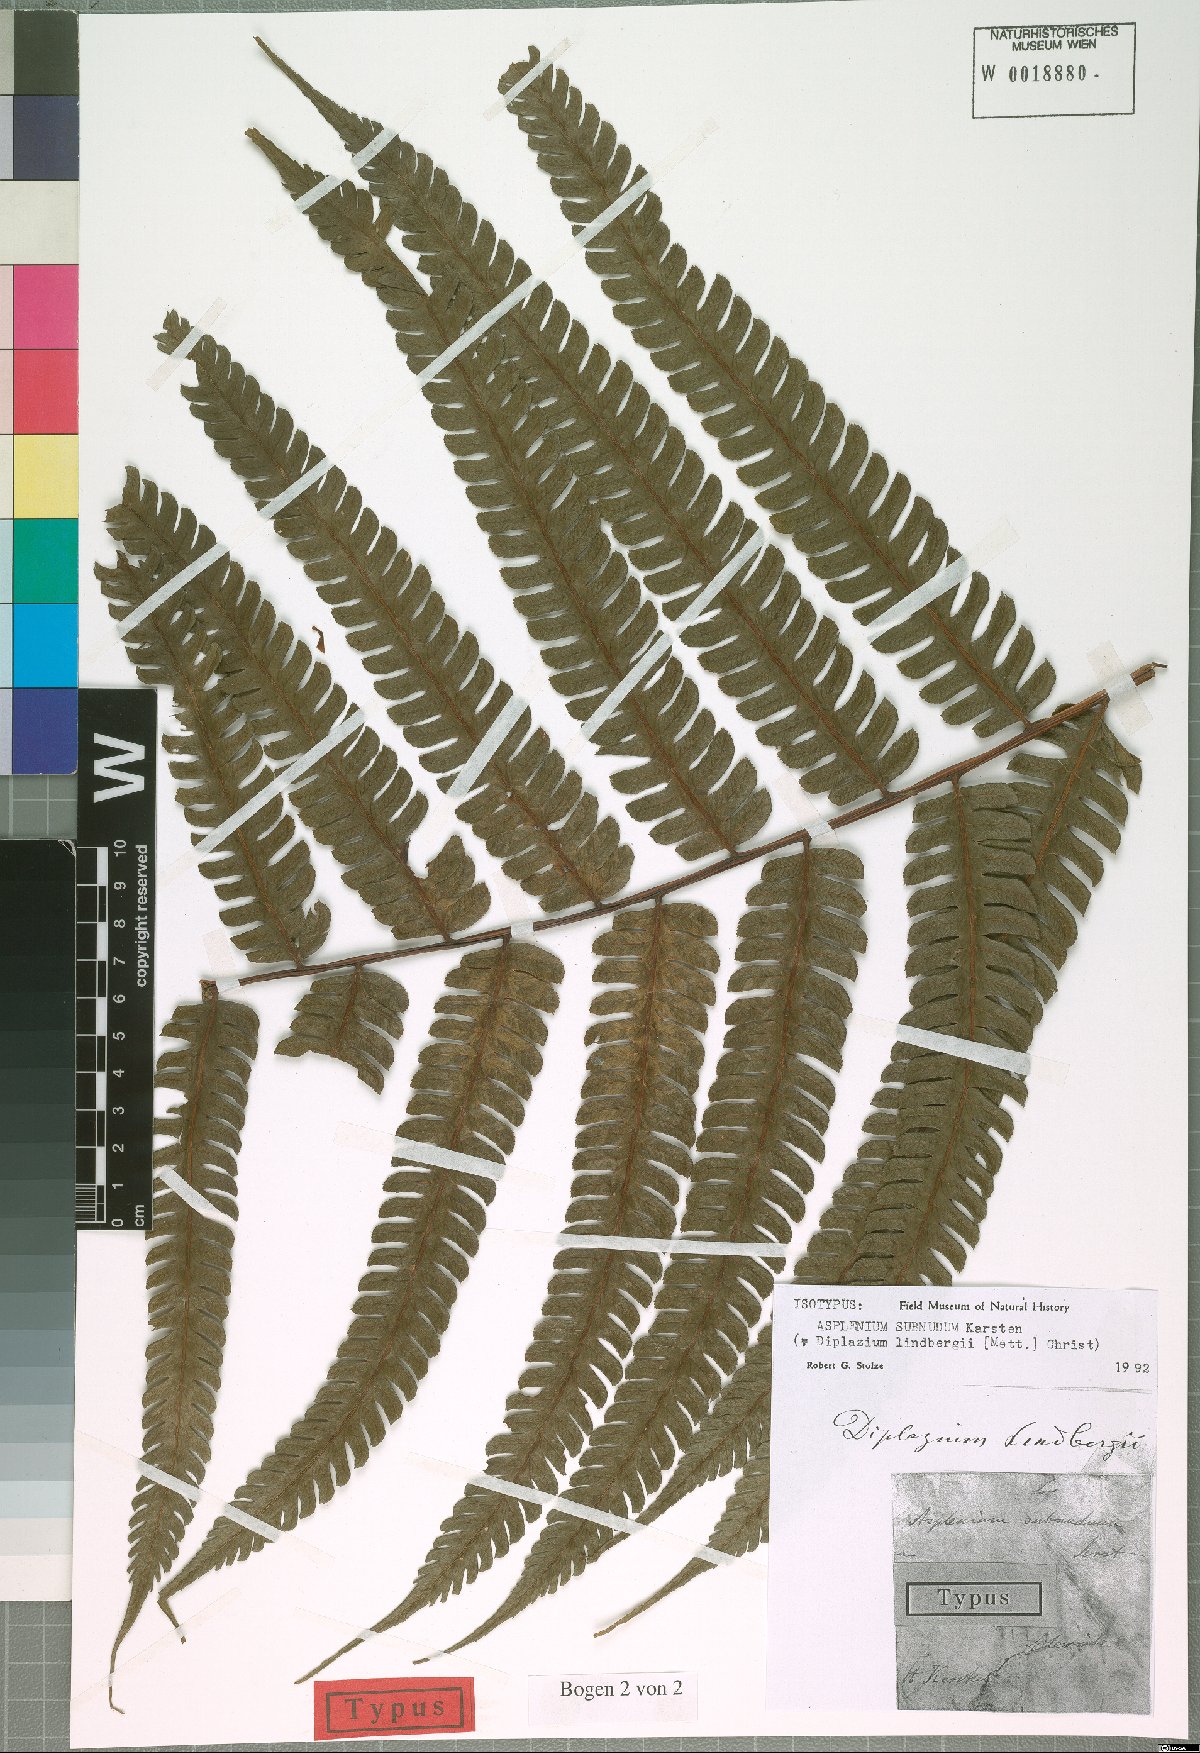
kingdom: Plantae
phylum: Tracheophyta
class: Polypodiopsida
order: Polypodiales
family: Athyriaceae
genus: Diplazium
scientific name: Diplazium lindbergii
